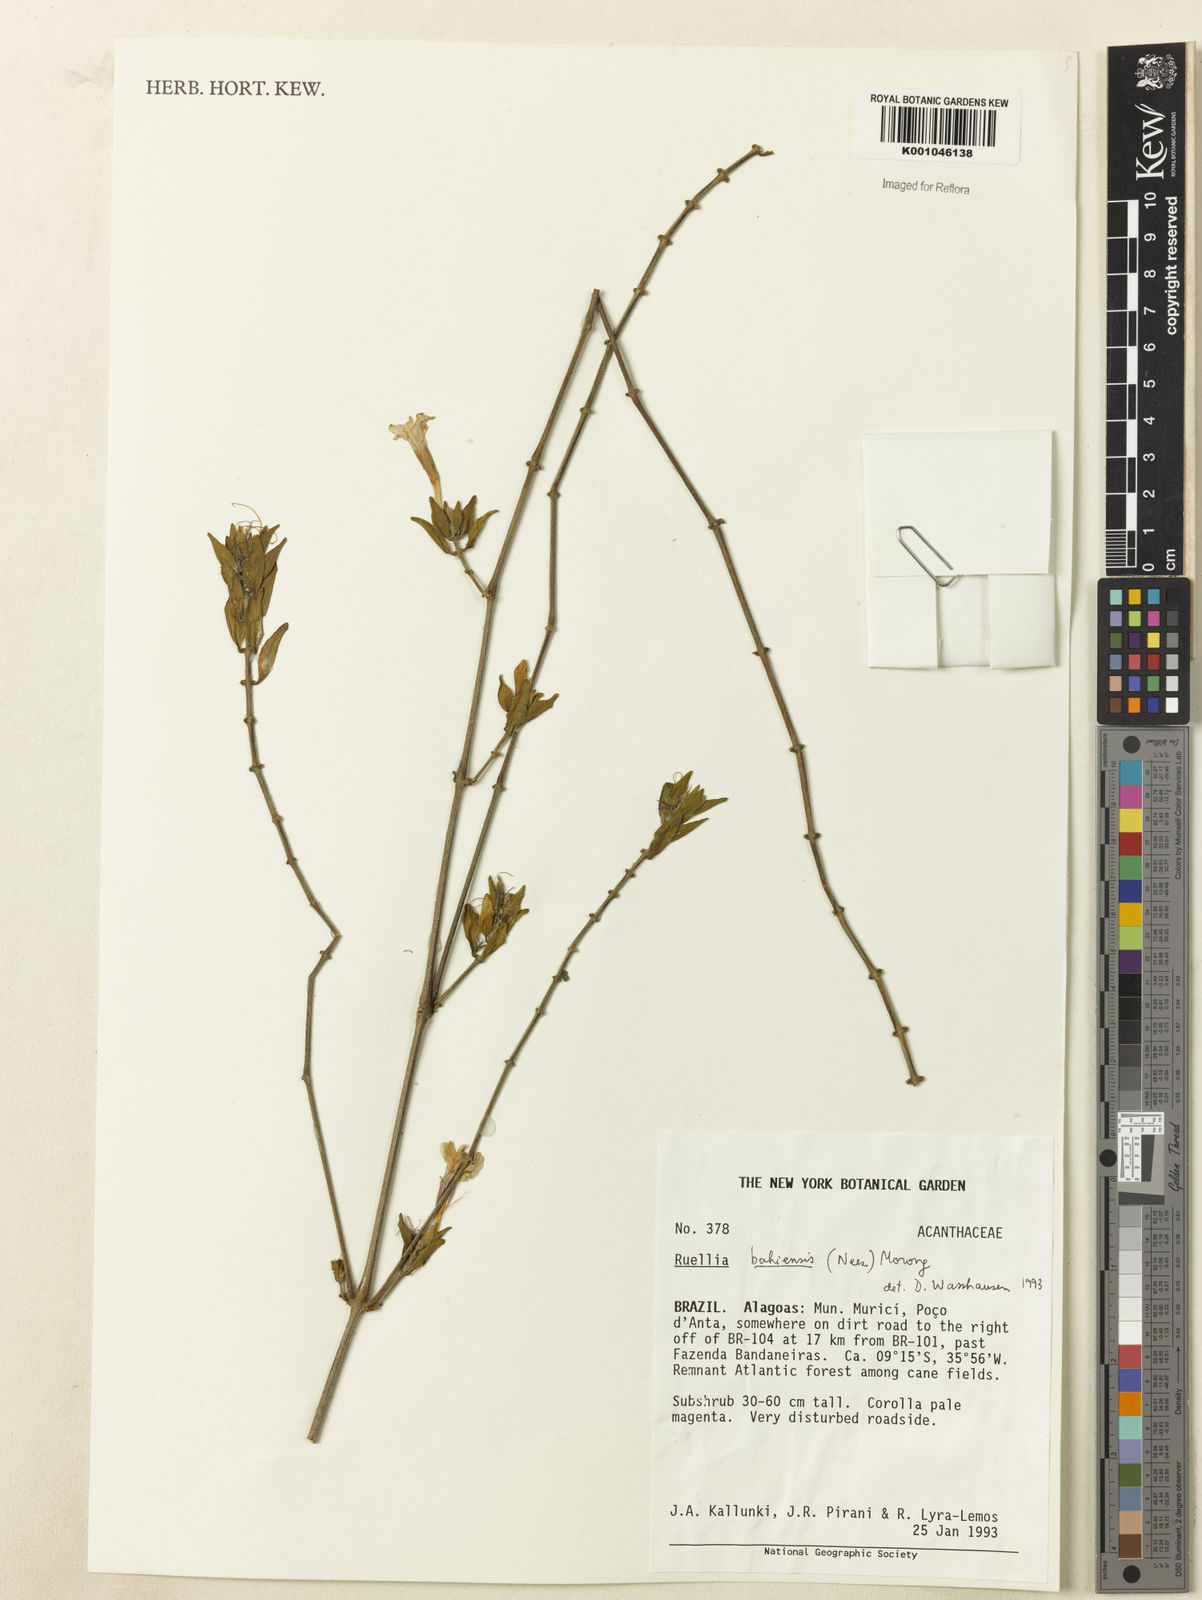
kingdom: Plantae
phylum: Tracheophyta
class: Magnoliopsida
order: Lamiales
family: Acanthaceae
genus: Ruellia
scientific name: Ruellia bahiensis
